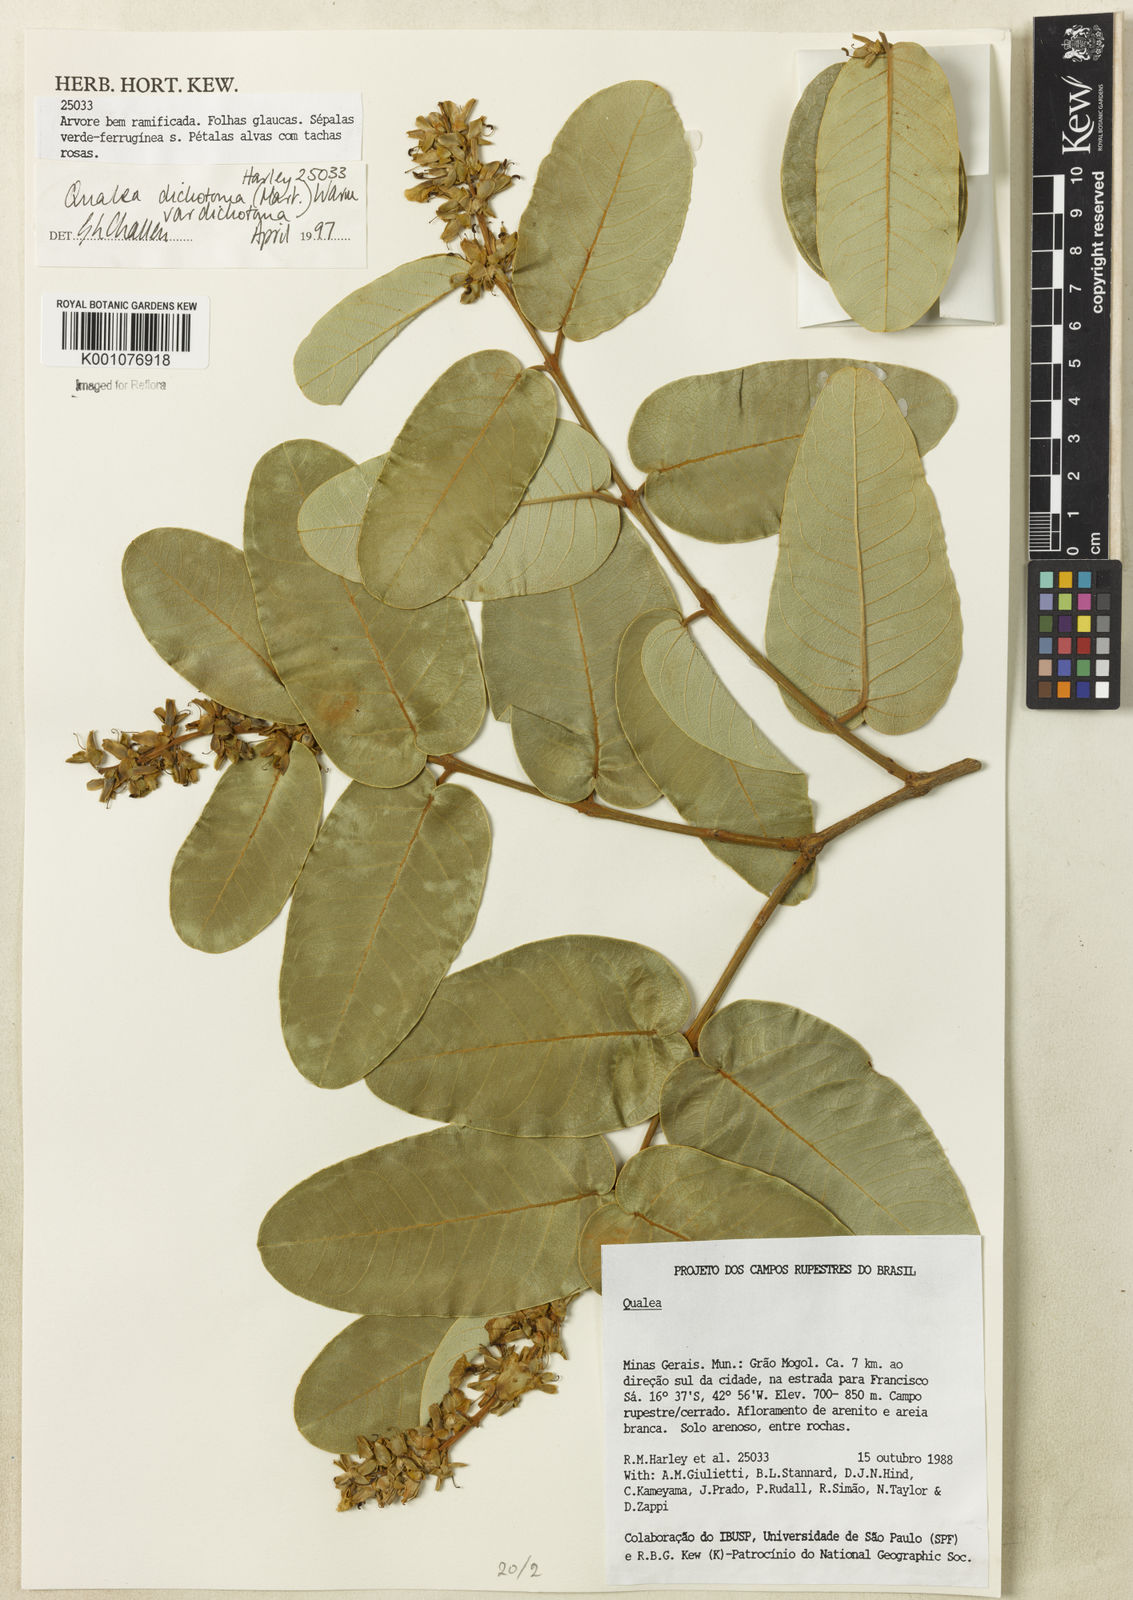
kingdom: Plantae
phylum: Tracheophyta
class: Magnoliopsida
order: Myrtales
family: Vochysiaceae
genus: Qualea
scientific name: Qualea
